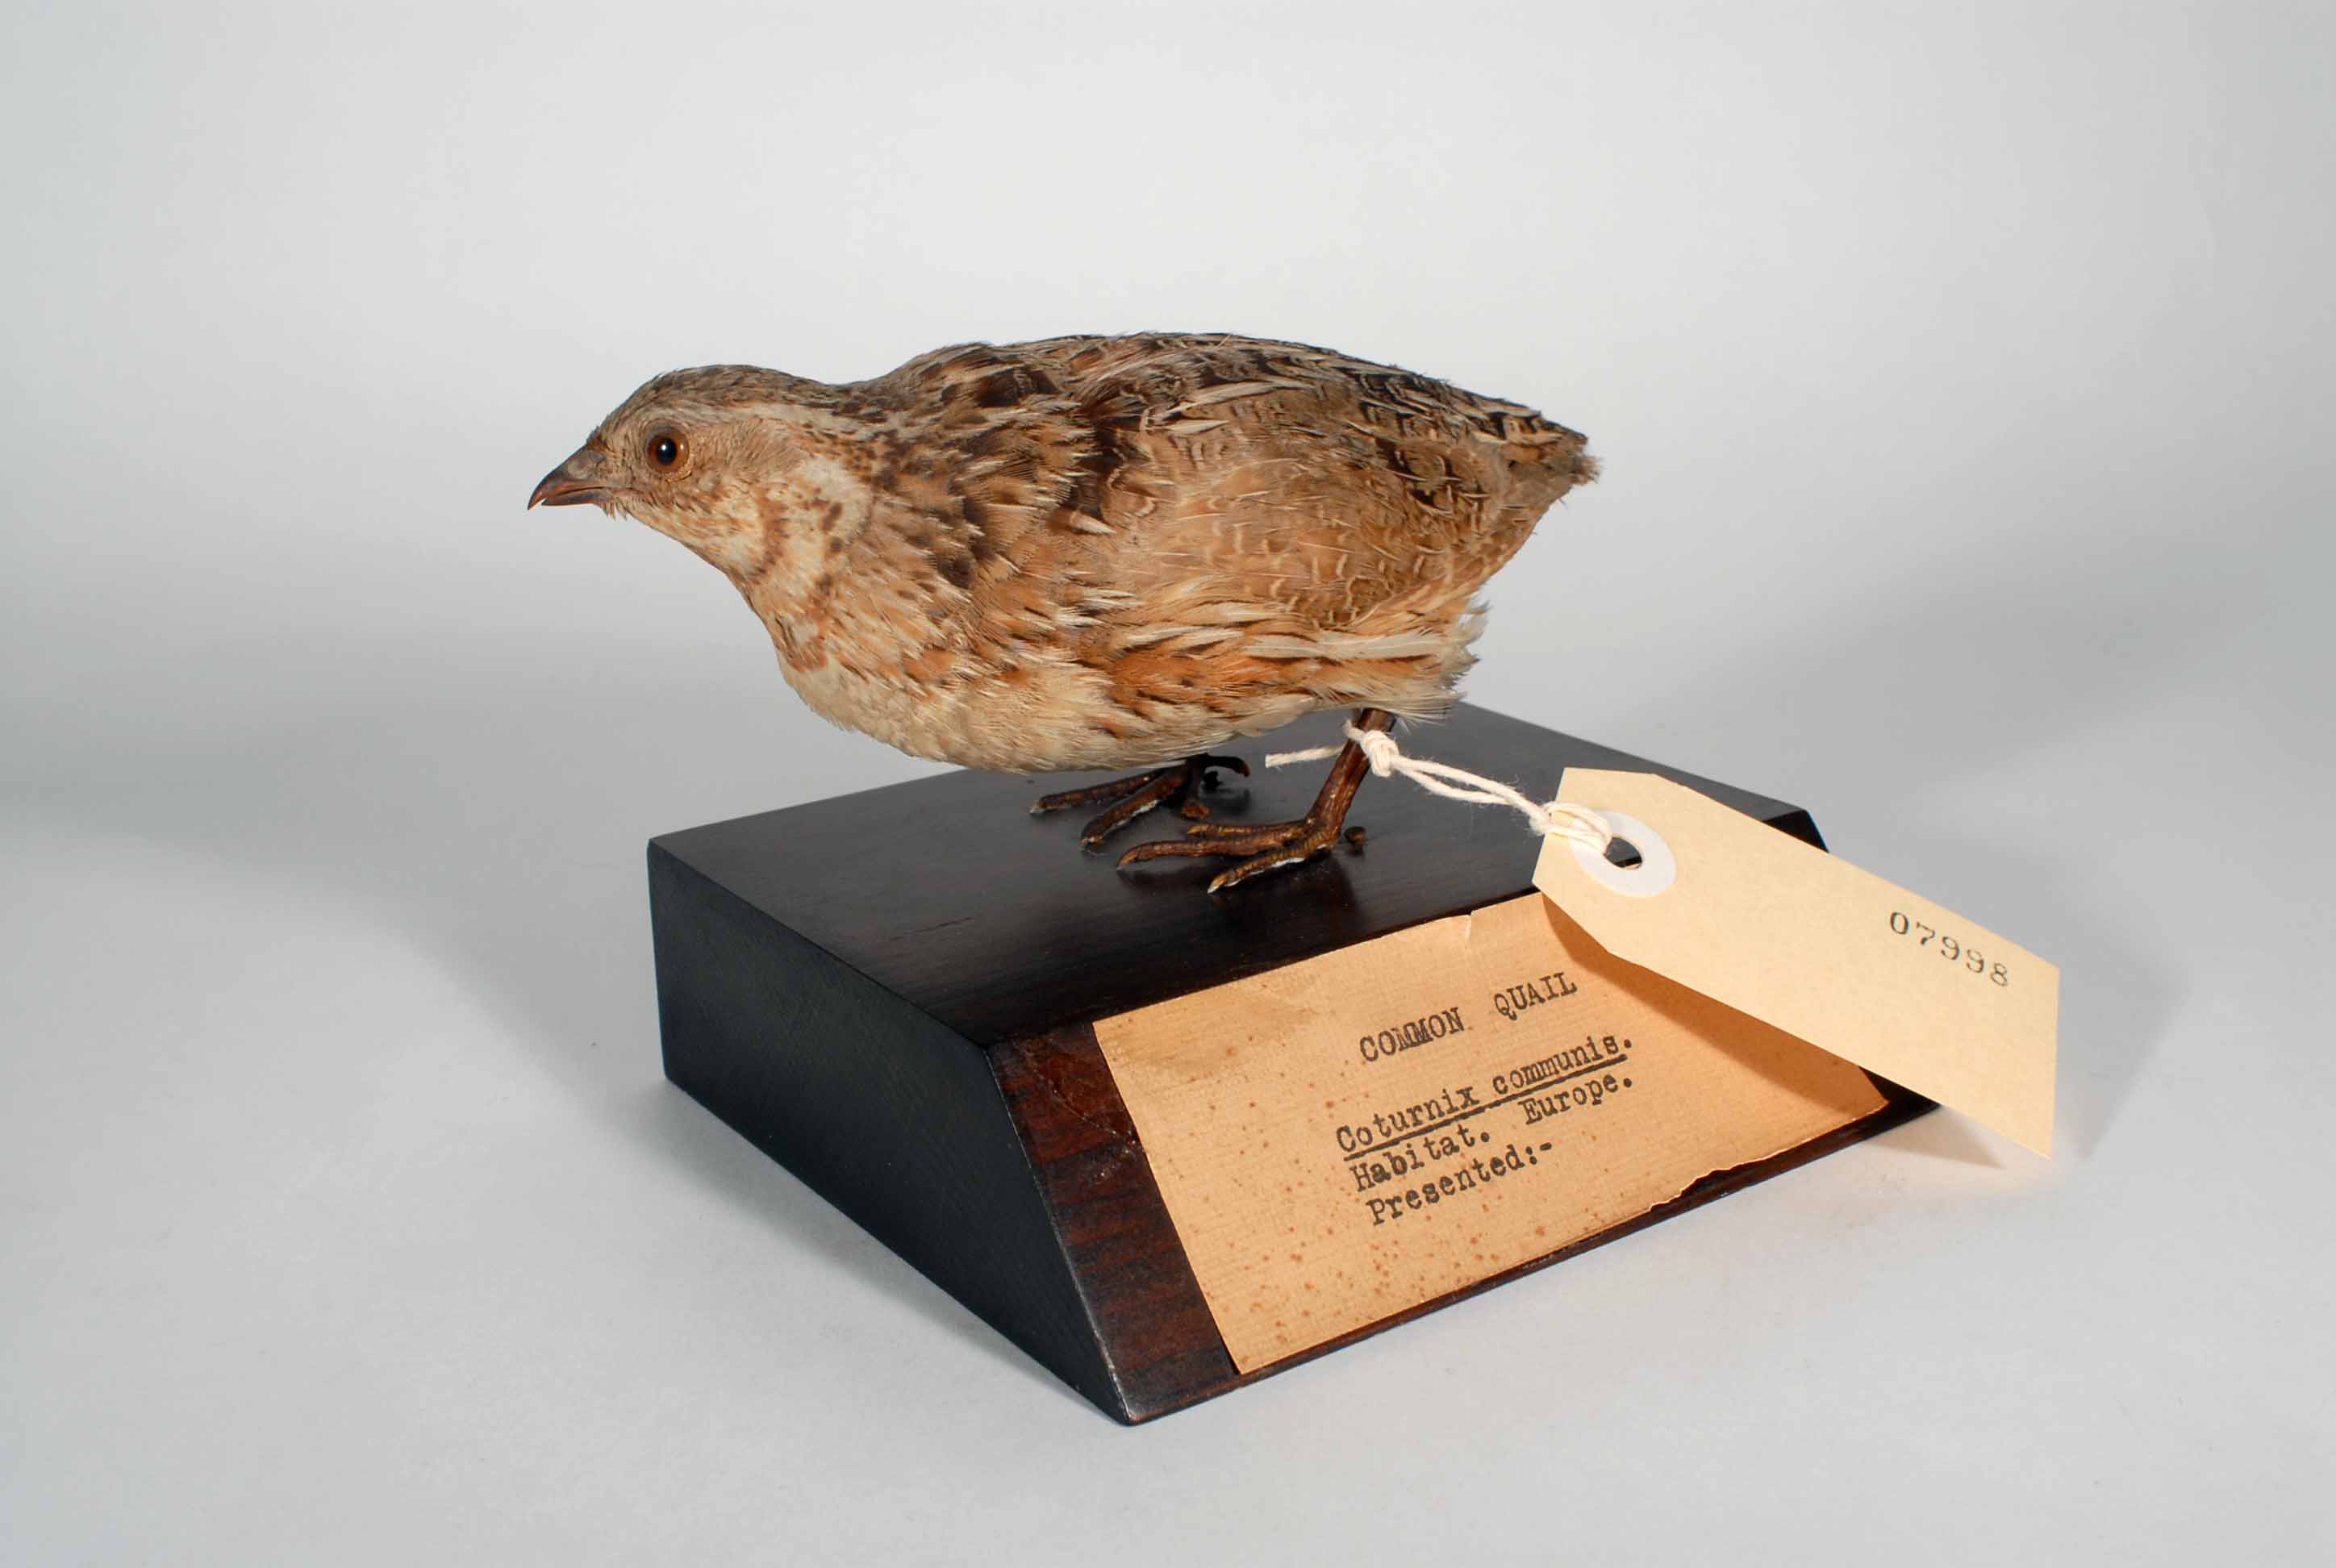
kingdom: Animalia
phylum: Chordata
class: Aves
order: Galliformes
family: Phasianidae
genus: Coturnix
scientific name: Coturnix coturnix
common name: Common quail
